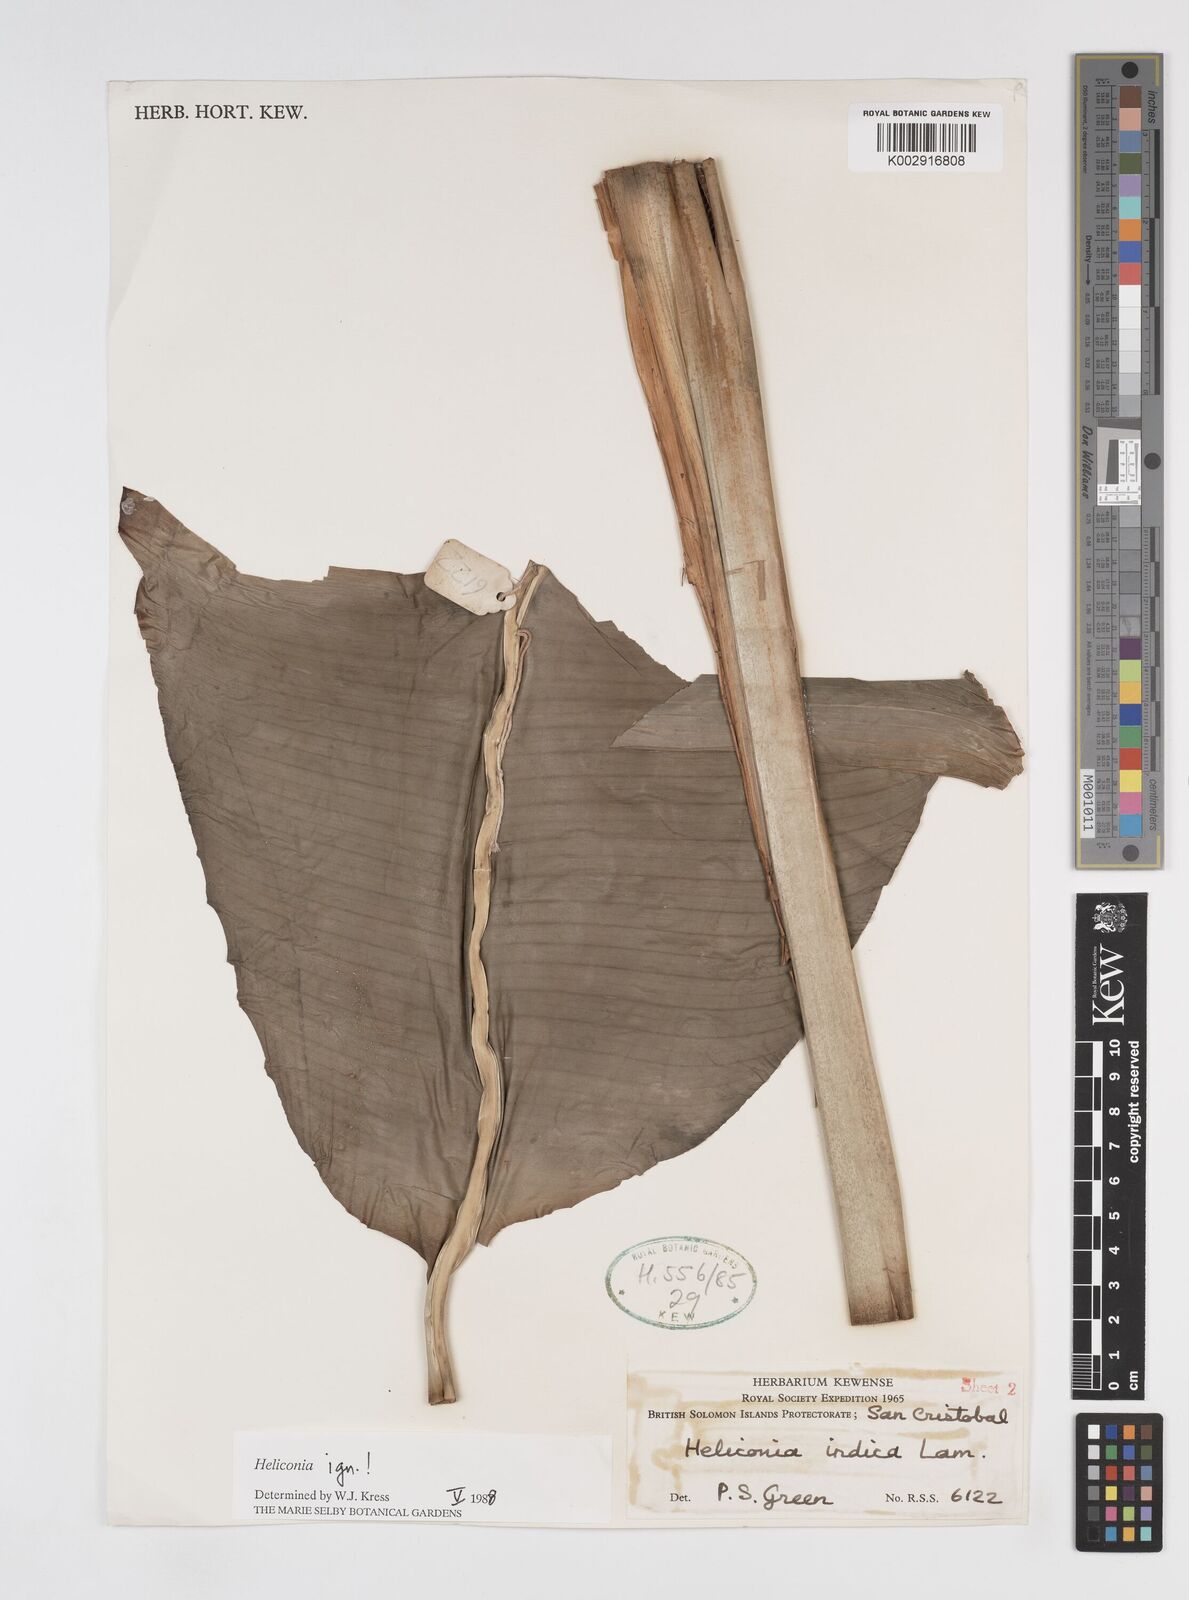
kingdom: Plantae
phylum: Tracheophyta
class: Liliopsida
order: Zingiberales
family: Heliconiaceae
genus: Heliconia
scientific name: Heliconia
